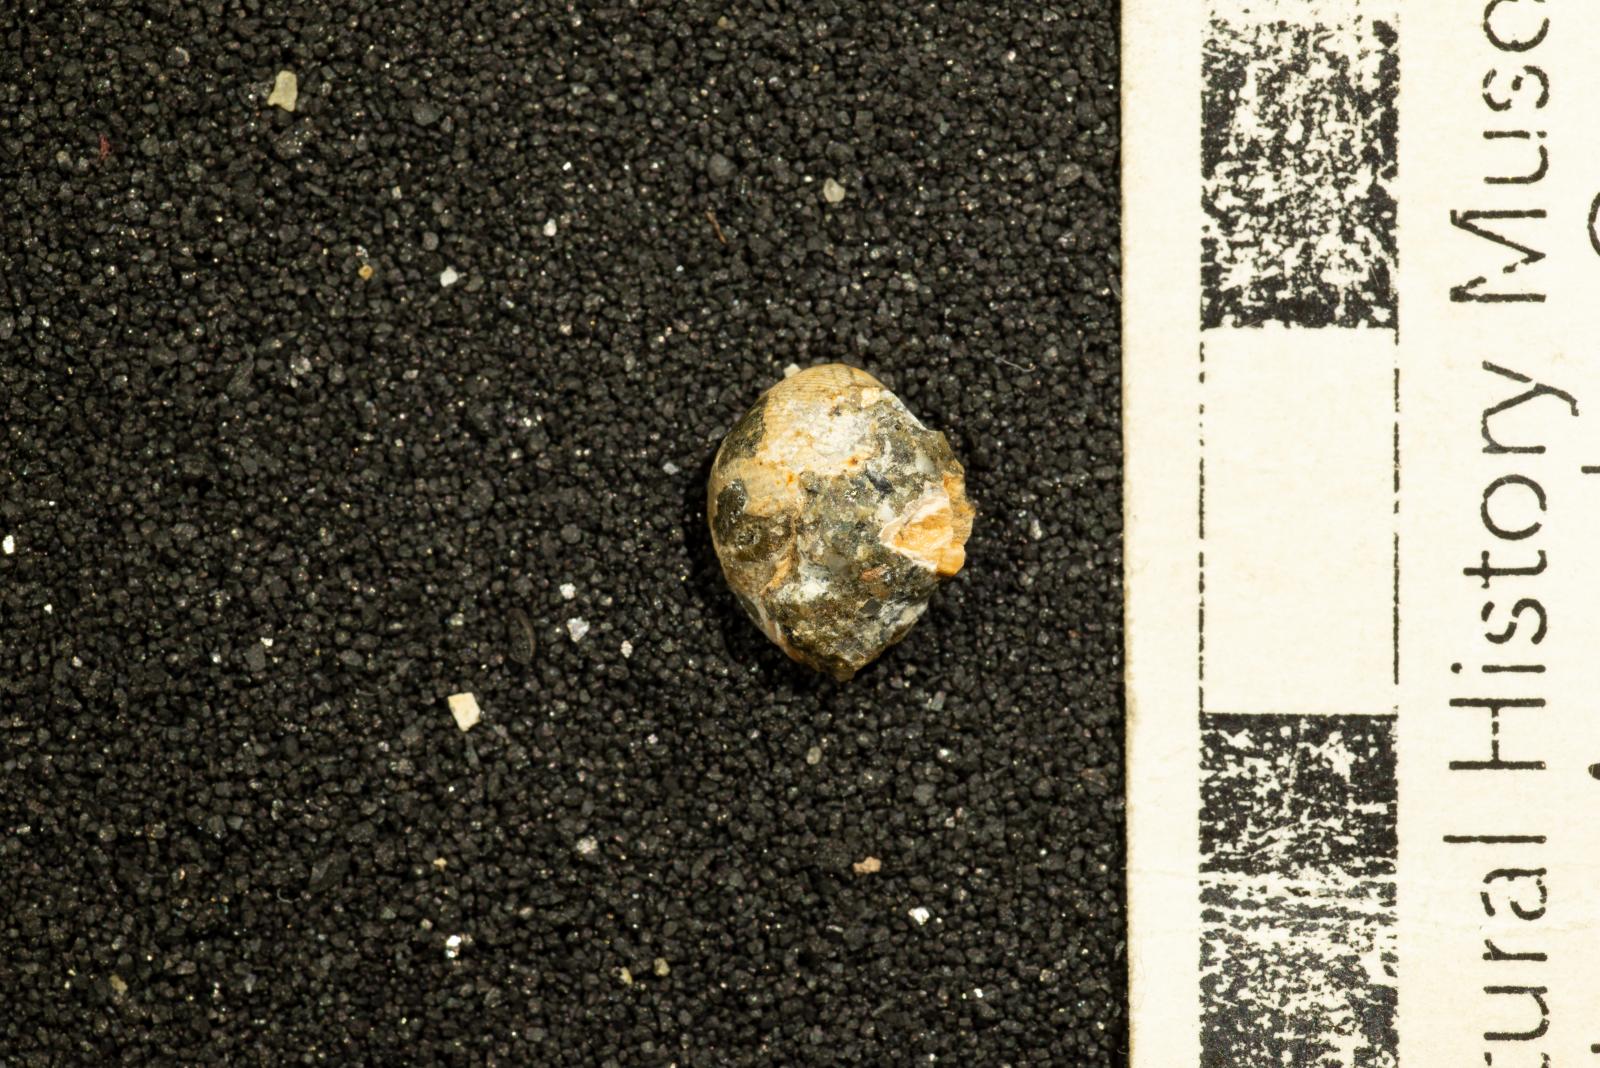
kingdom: Animalia
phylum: Mollusca
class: Gastropoda
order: Cephalaspidea
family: Ringiculidae
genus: Biplica
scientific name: Biplica heteroplicata
